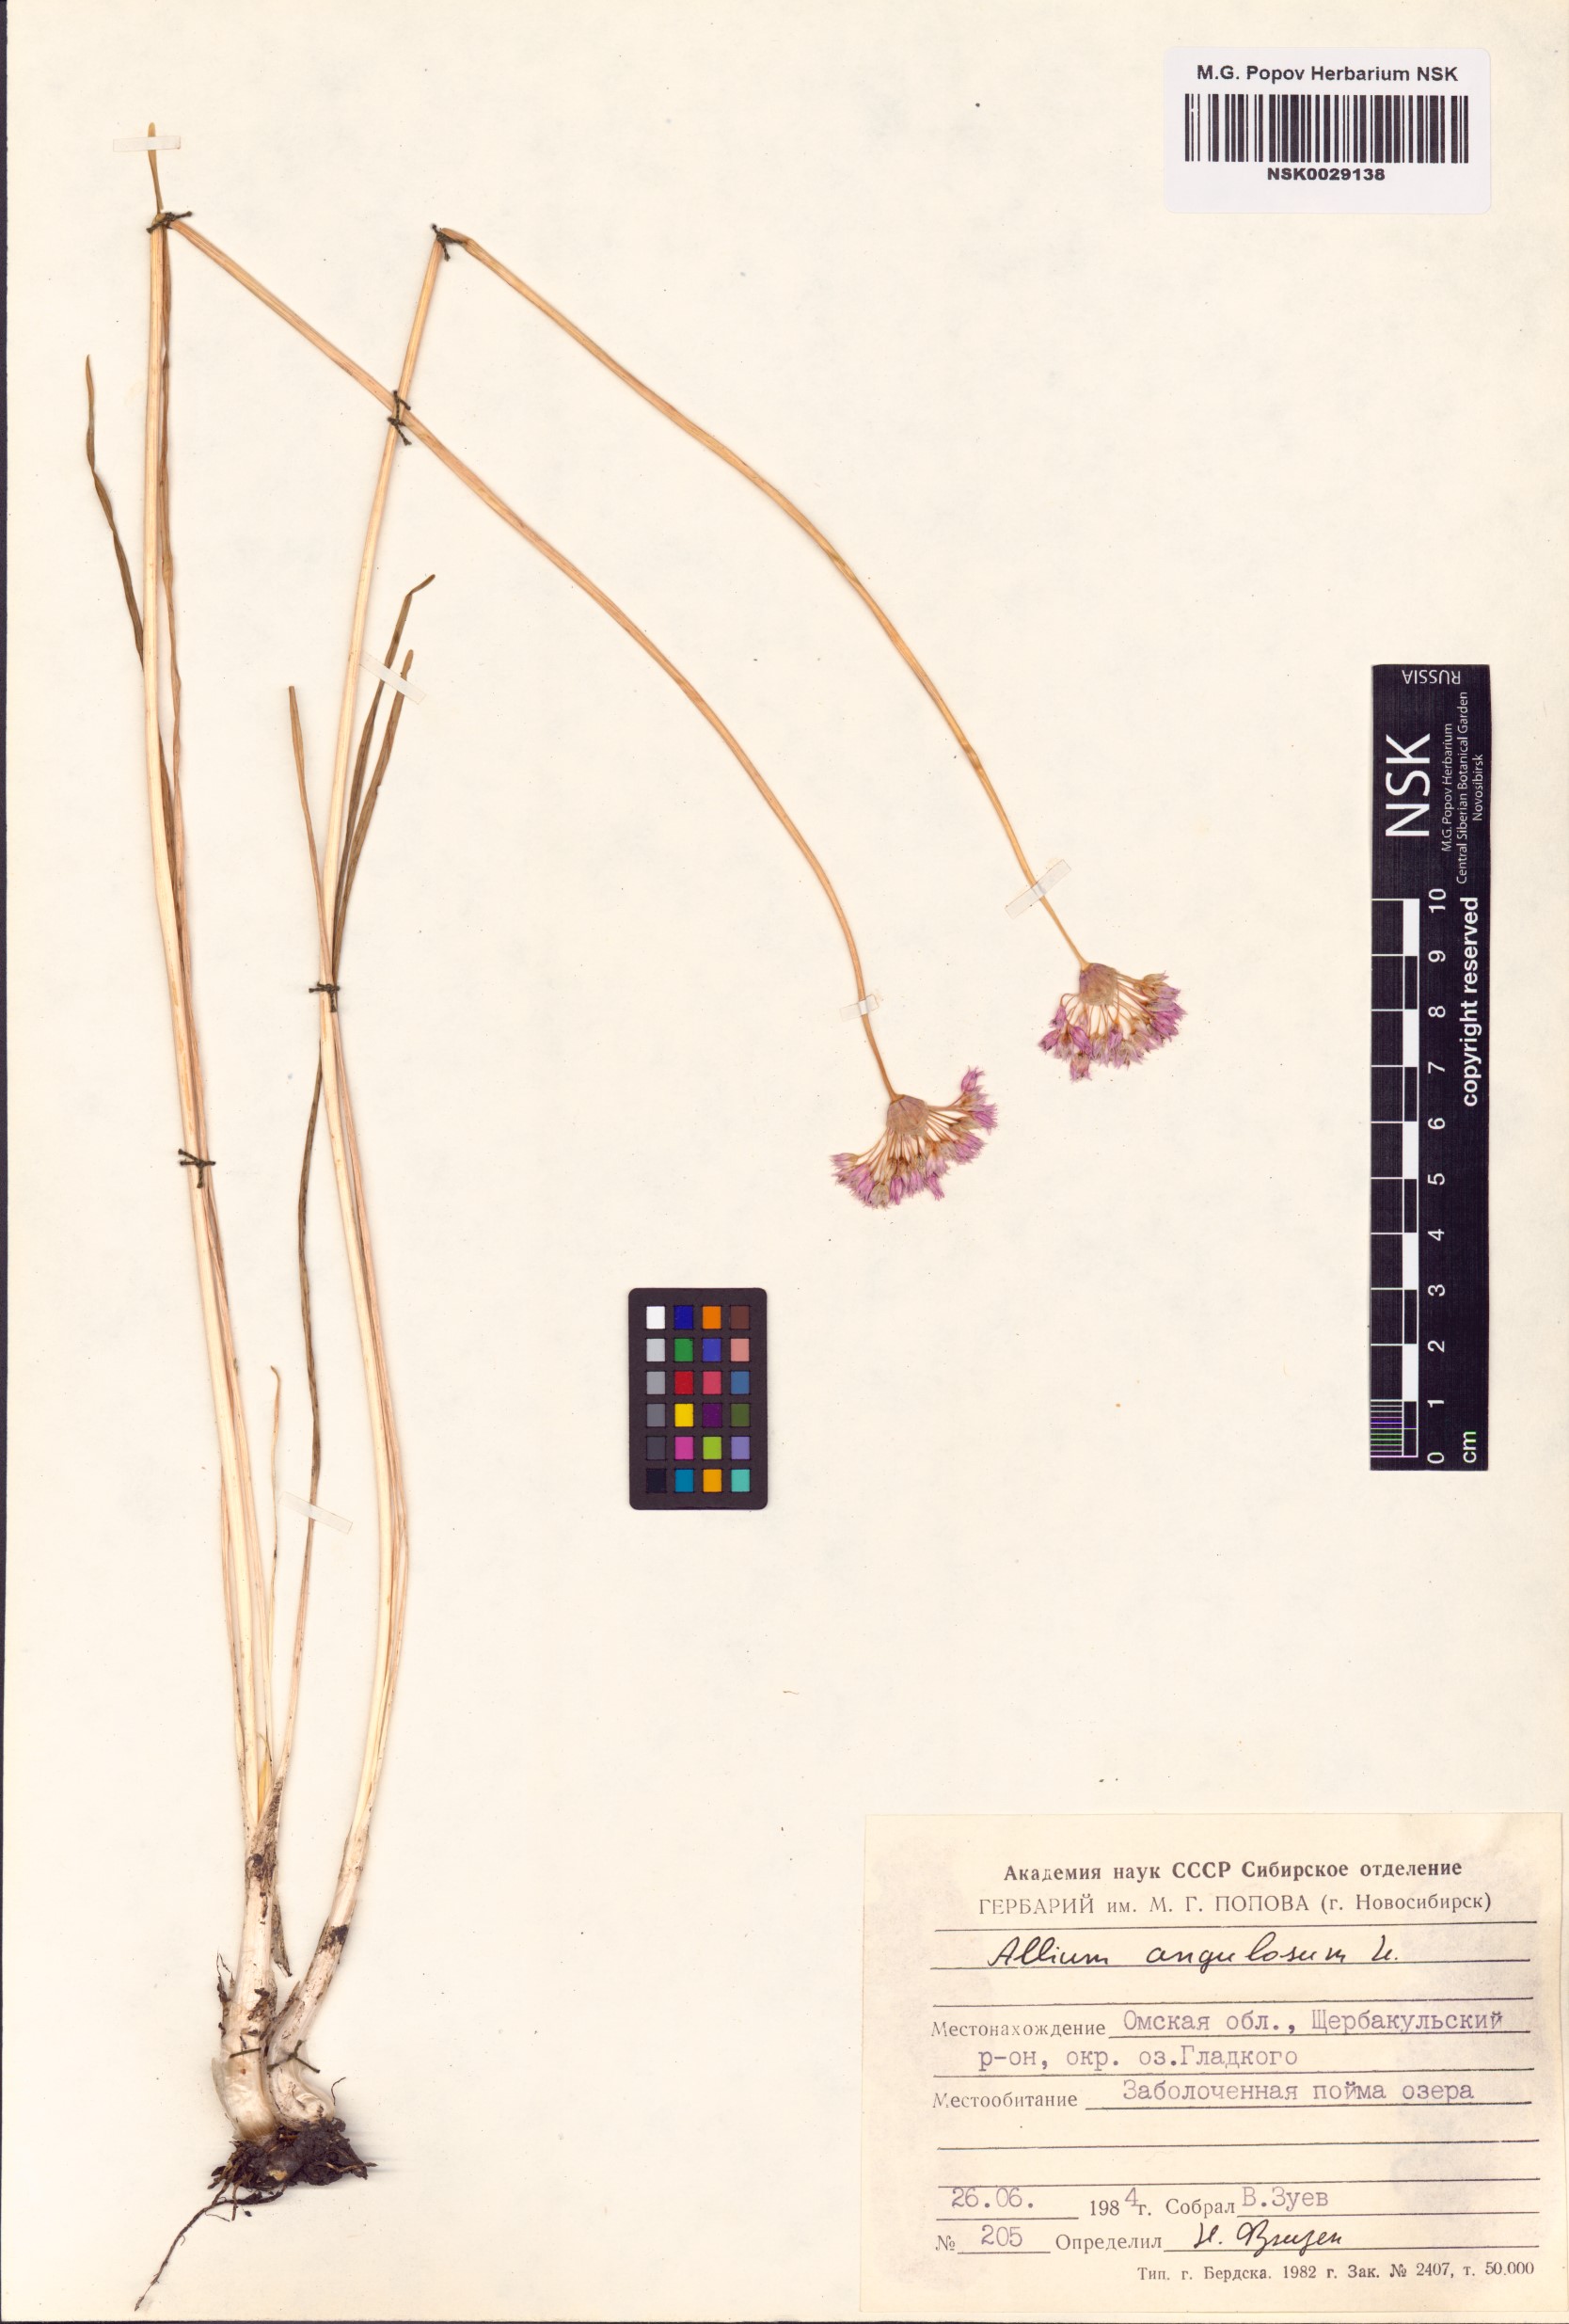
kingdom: Plantae
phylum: Tracheophyta
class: Liliopsida
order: Asparagales
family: Amaryllidaceae
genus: Allium
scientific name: Allium angulosum
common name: Mouse garlic
